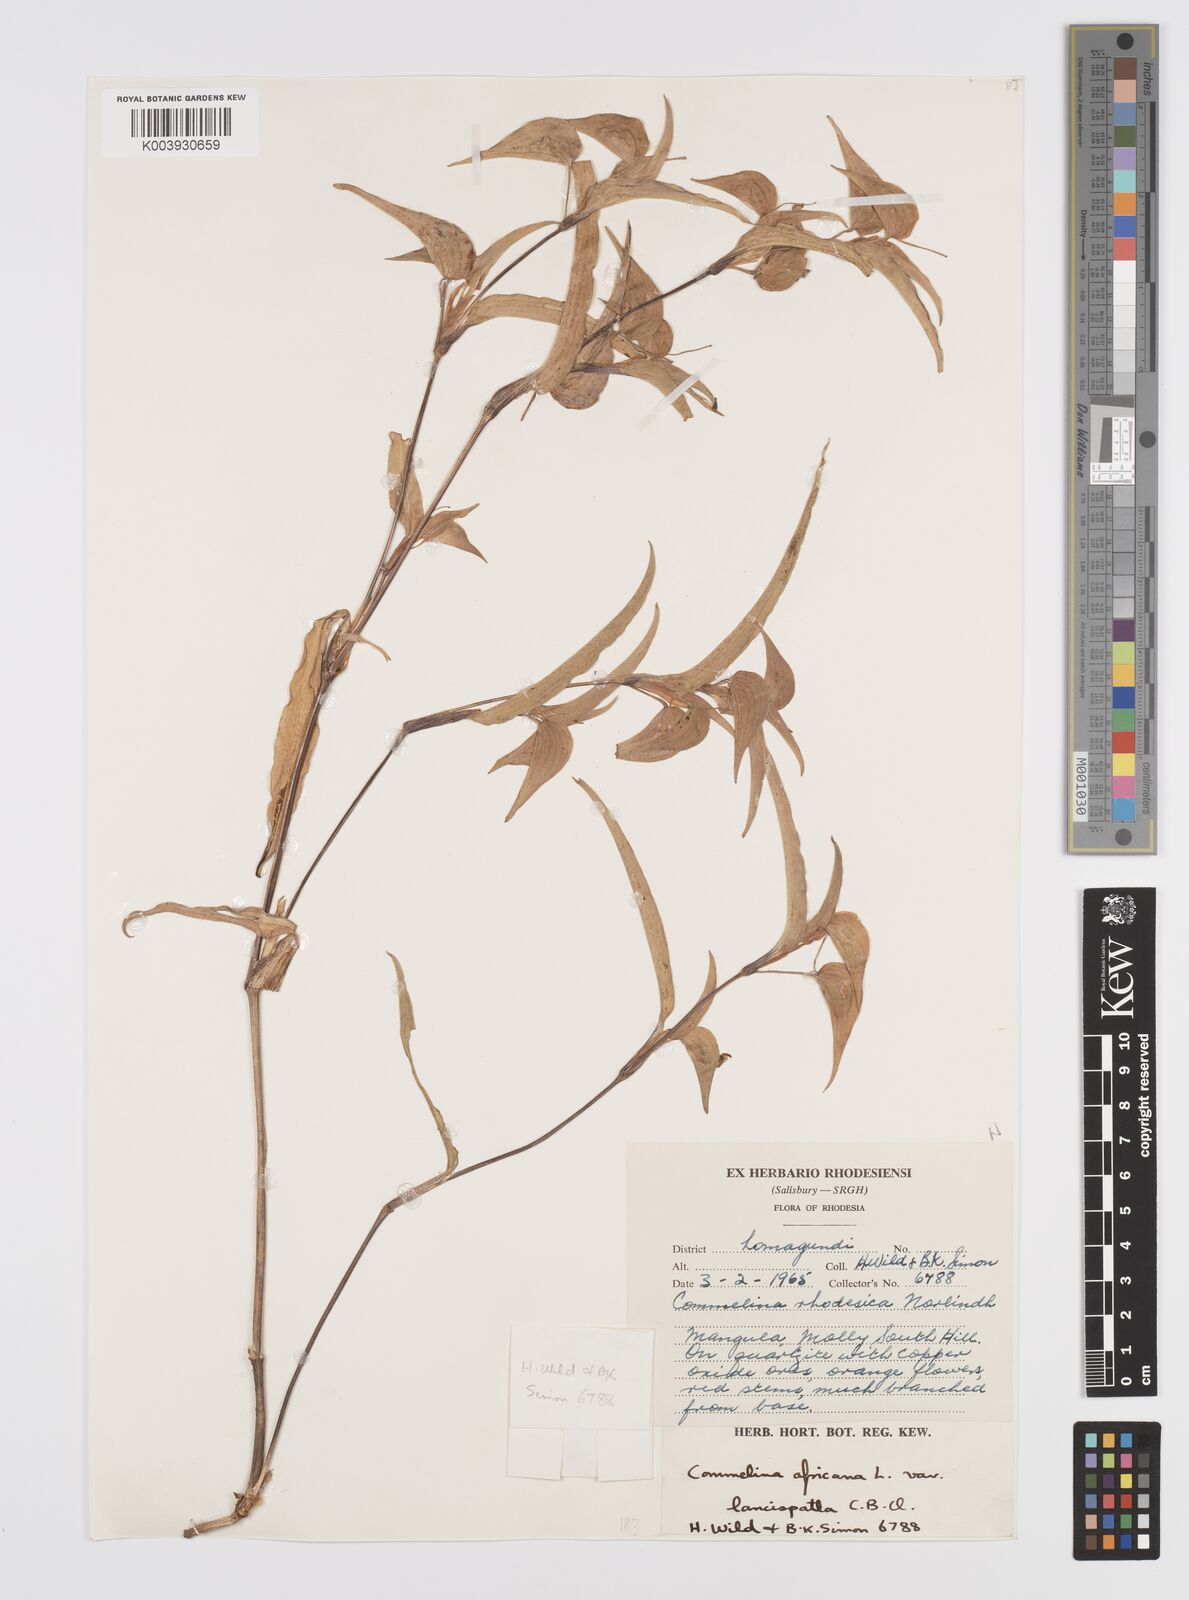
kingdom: Plantae
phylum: Tracheophyta
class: Liliopsida
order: Commelinales
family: Commelinaceae
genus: Commelina
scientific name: Commelina africana
